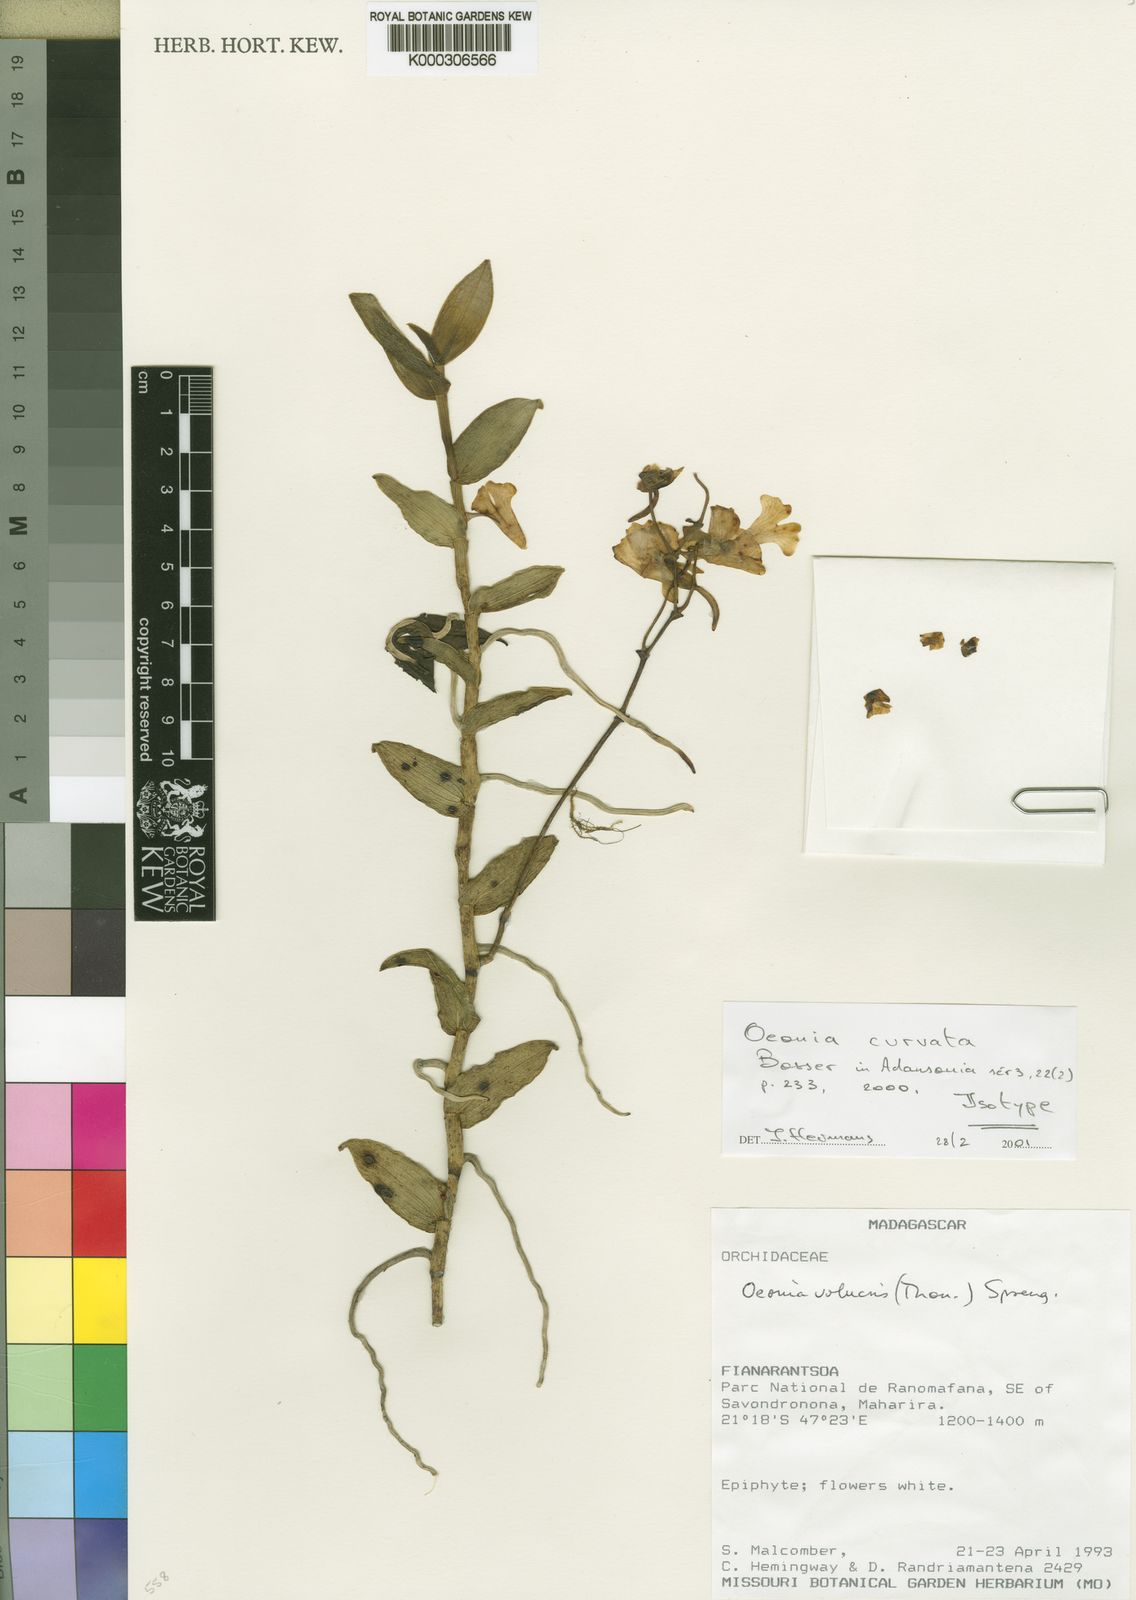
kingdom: Plantae
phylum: Tracheophyta
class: Liliopsida
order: Asparagales
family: Orchidaceae
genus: Oeonia
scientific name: Oeonia curvata
